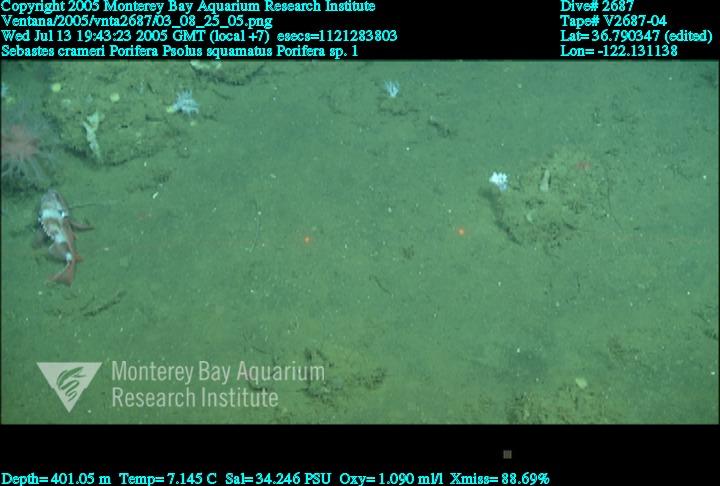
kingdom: Animalia
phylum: Porifera
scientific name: Porifera
